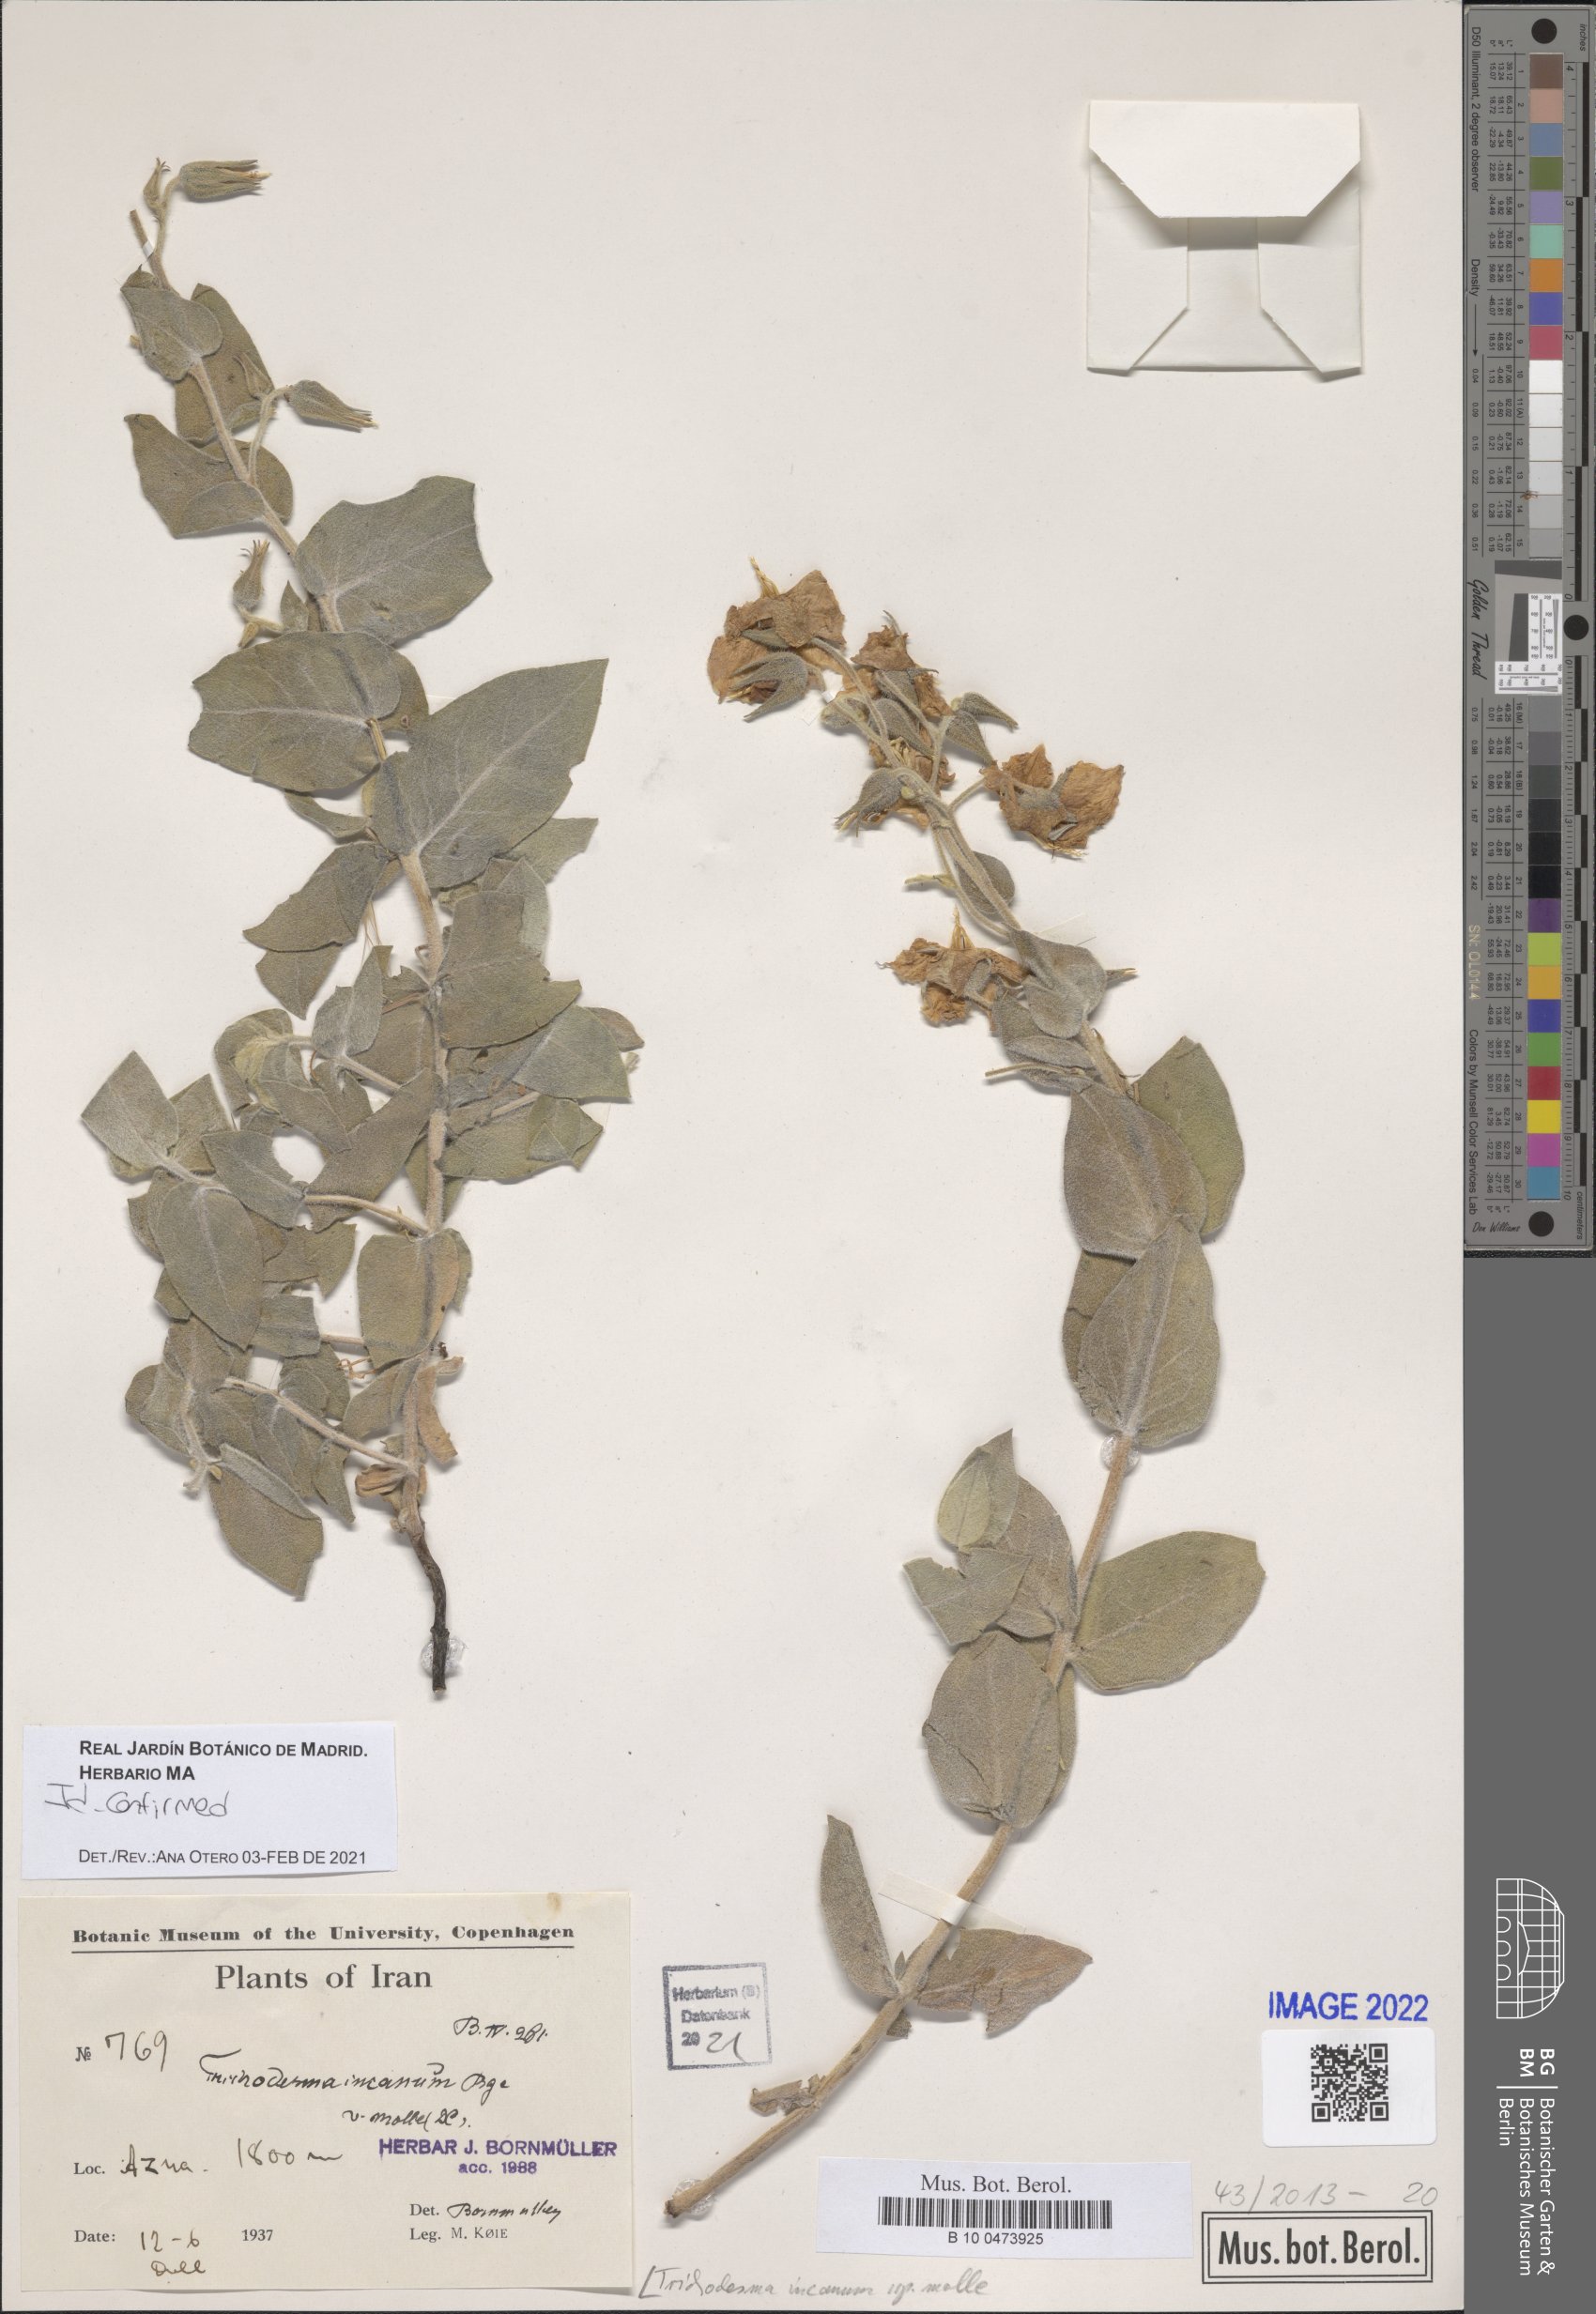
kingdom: Plantae
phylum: Tracheophyta
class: Magnoliopsida
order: Boraginales
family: Boraginaceae
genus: Trichodesma
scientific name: Trichodesma incanum
